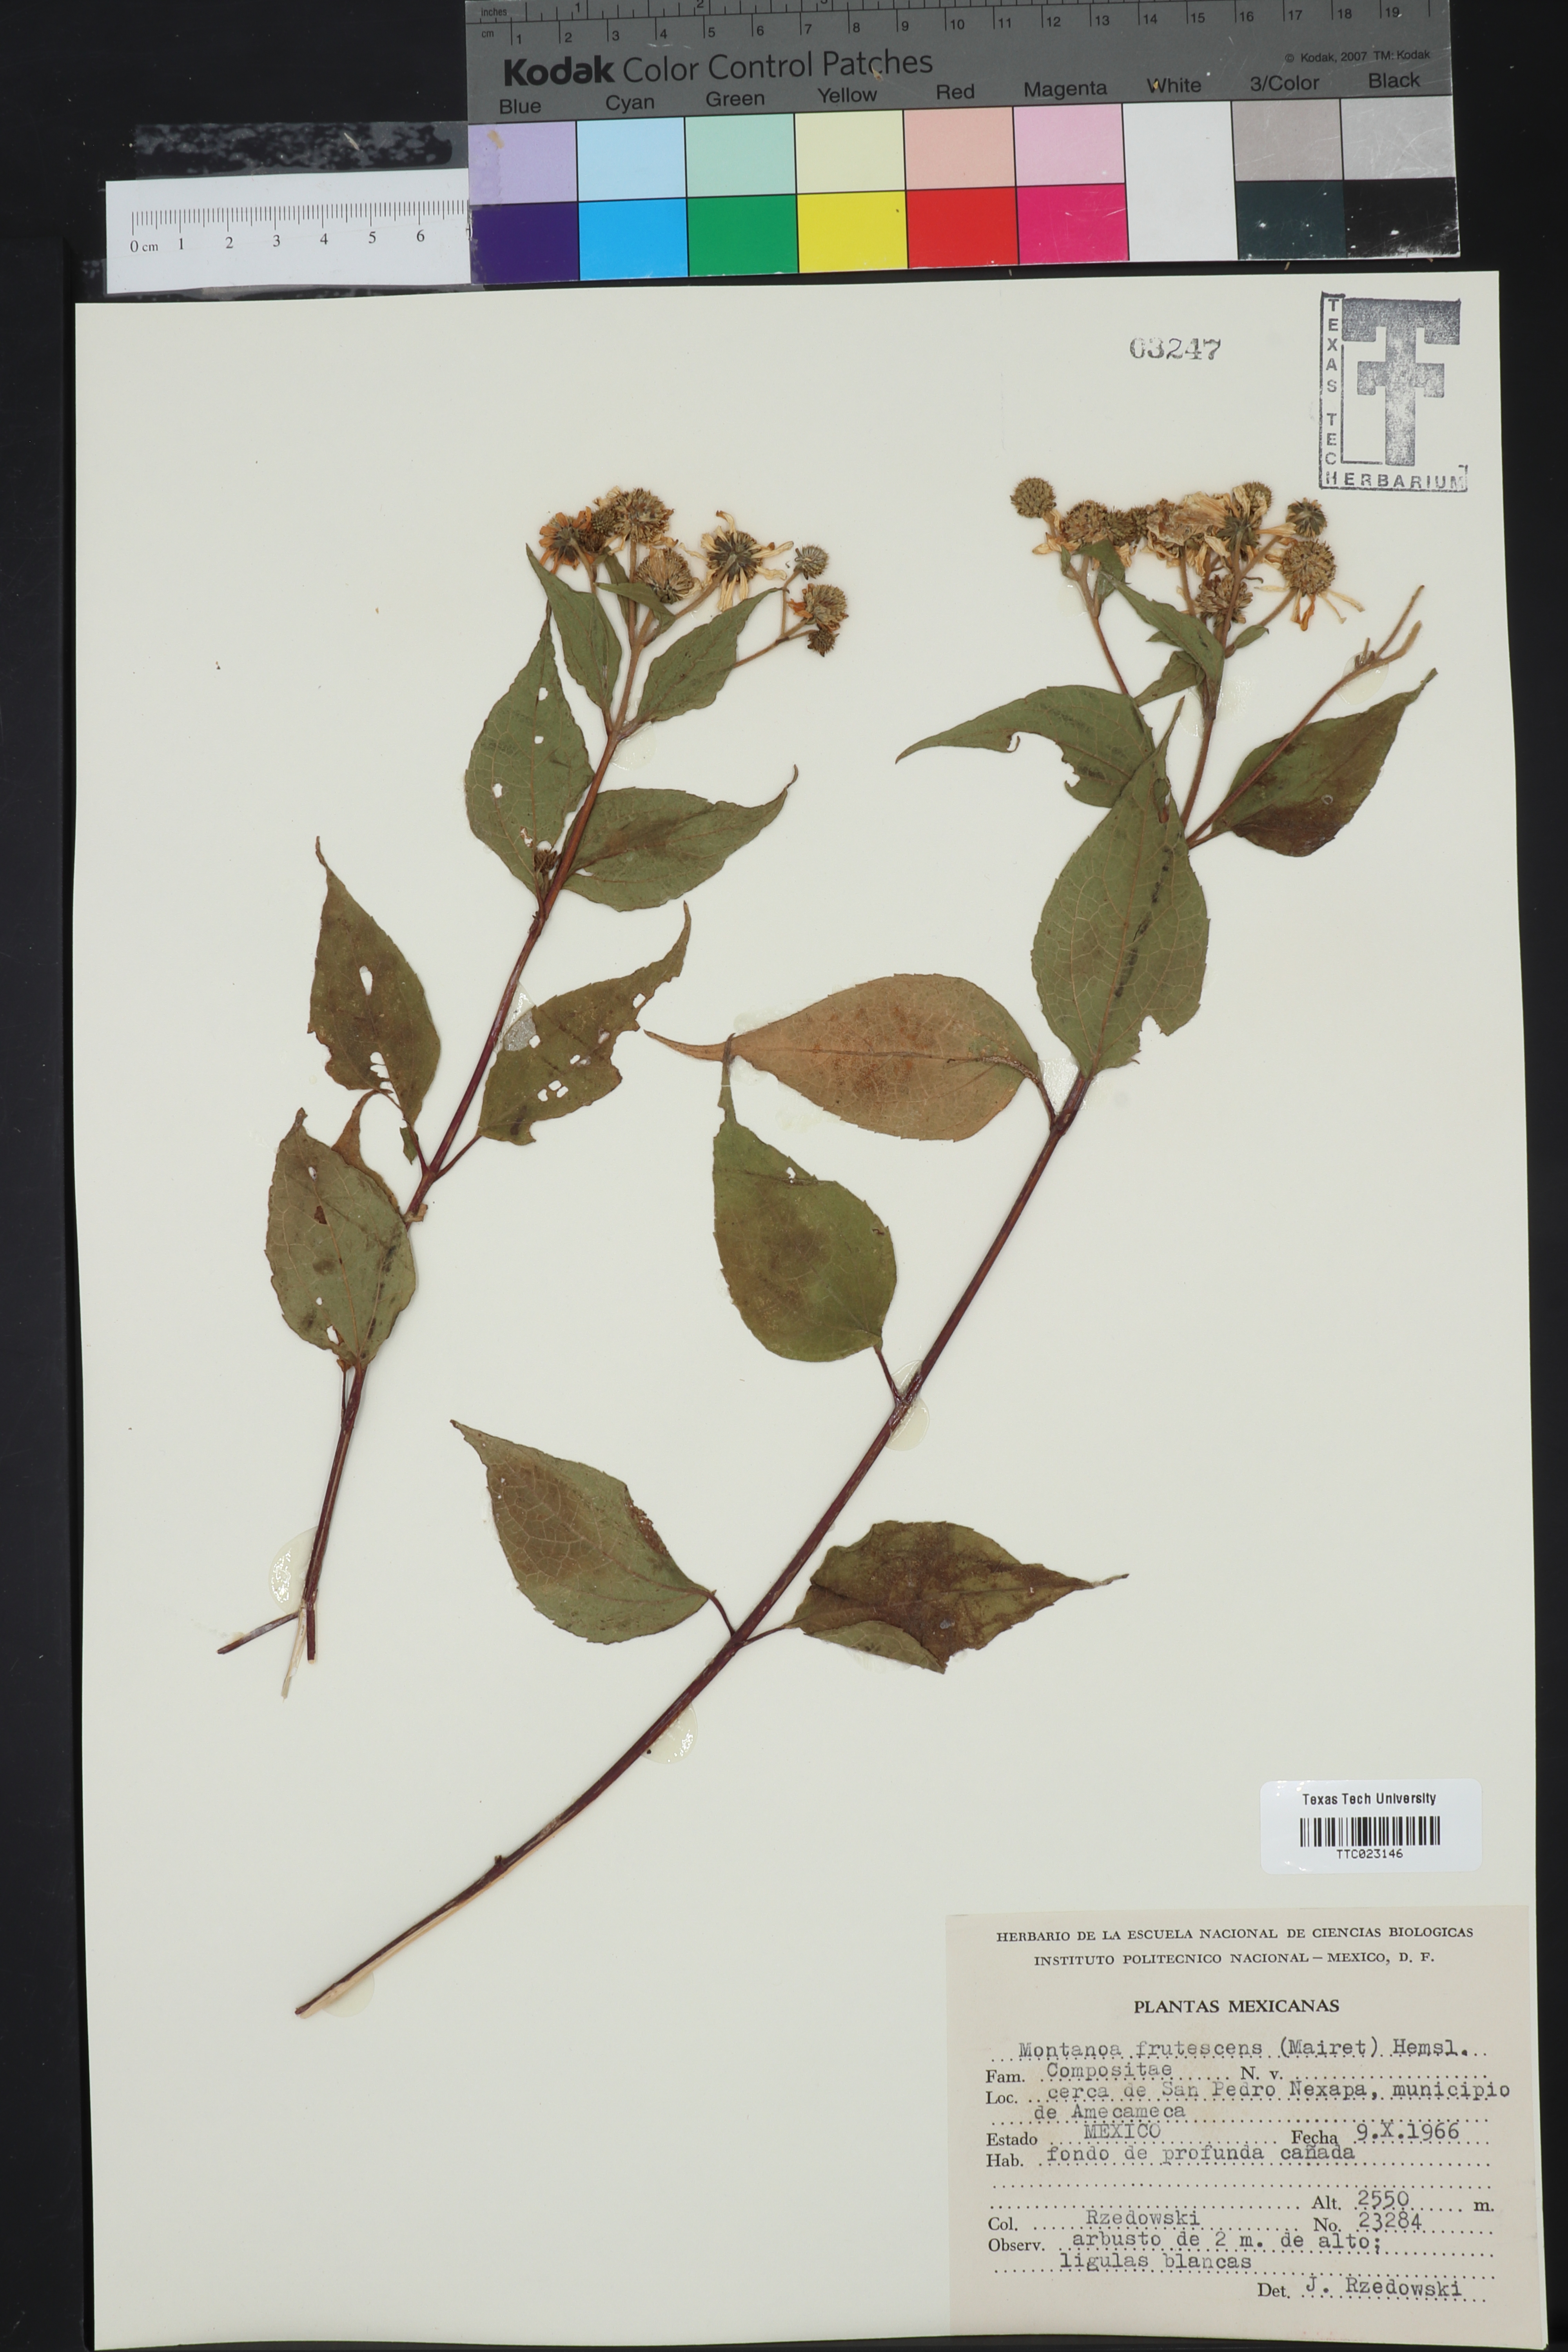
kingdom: Plantae
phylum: Tracheophyta
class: Magnoliopsida
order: Asterales
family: Asteraceae
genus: Montanoa
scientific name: Montanoa frutescens
